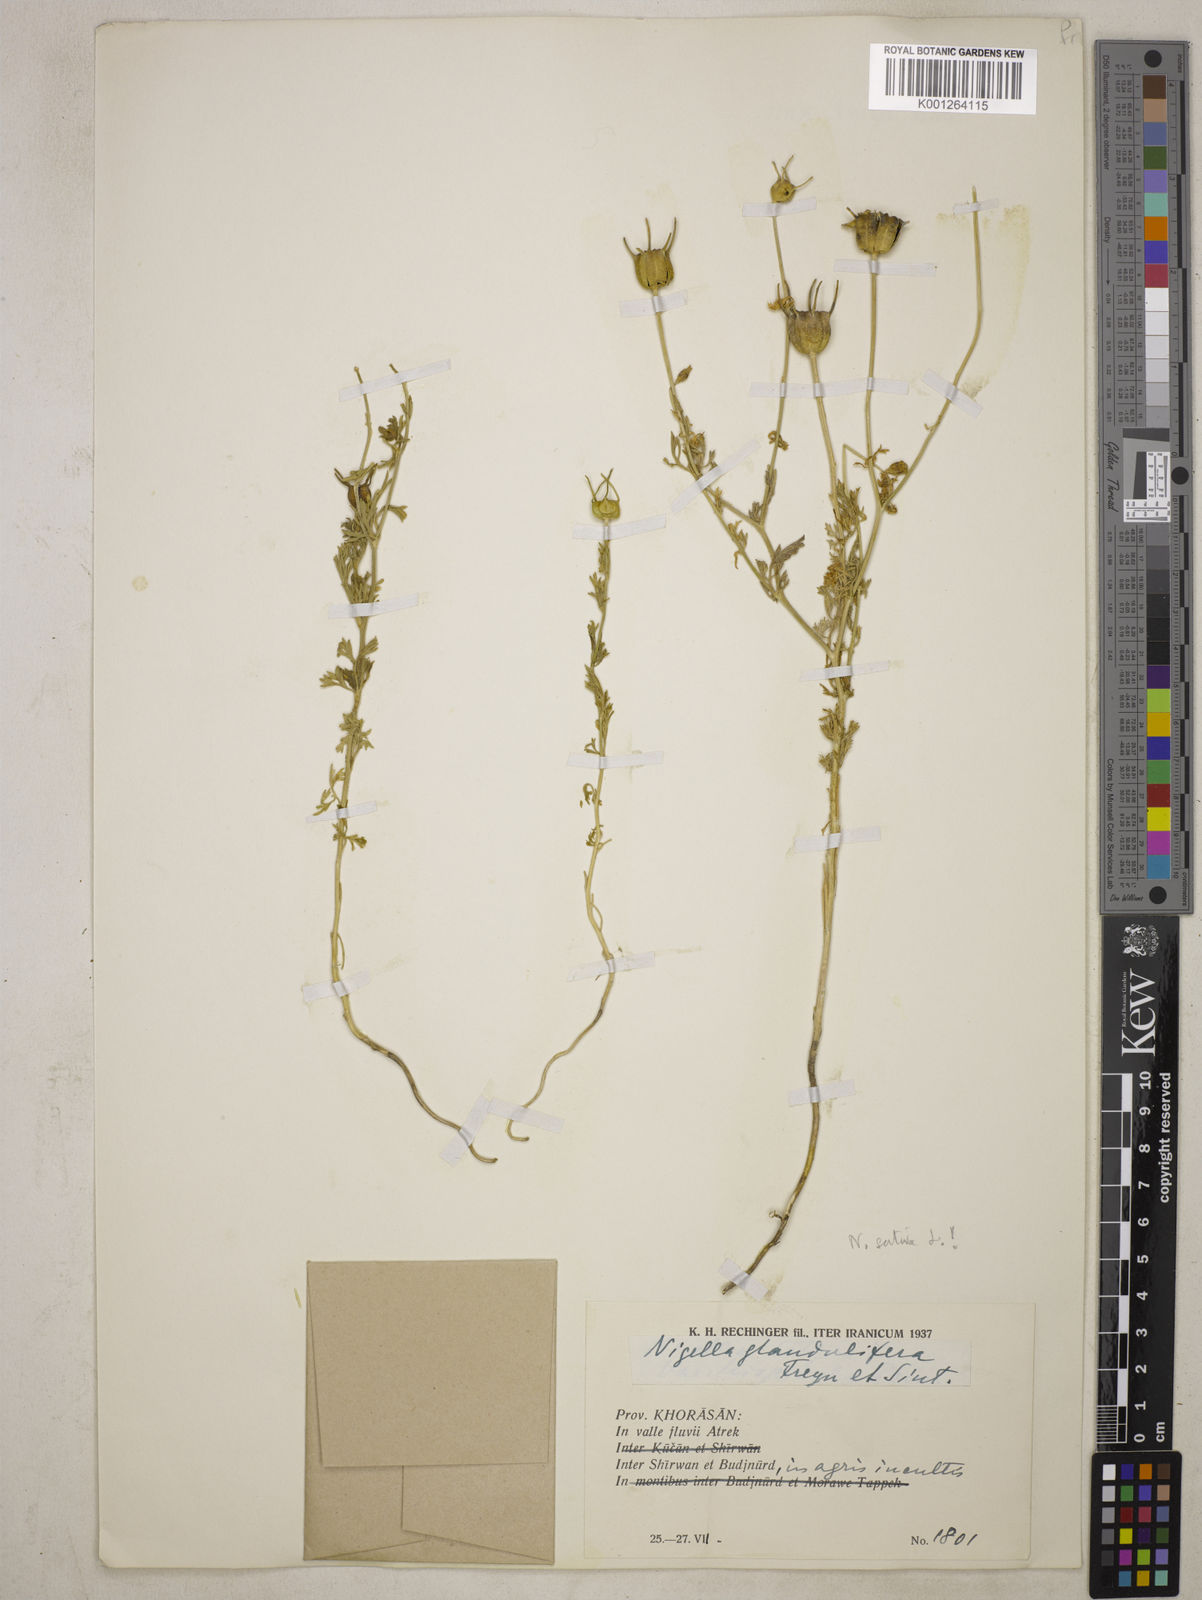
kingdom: Plantae
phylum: Tracheophyta
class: Magnoliopsida
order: Ranunculales
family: Ranunculaceae
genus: Nigella
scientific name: Nigella sativa
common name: Black-cumin
